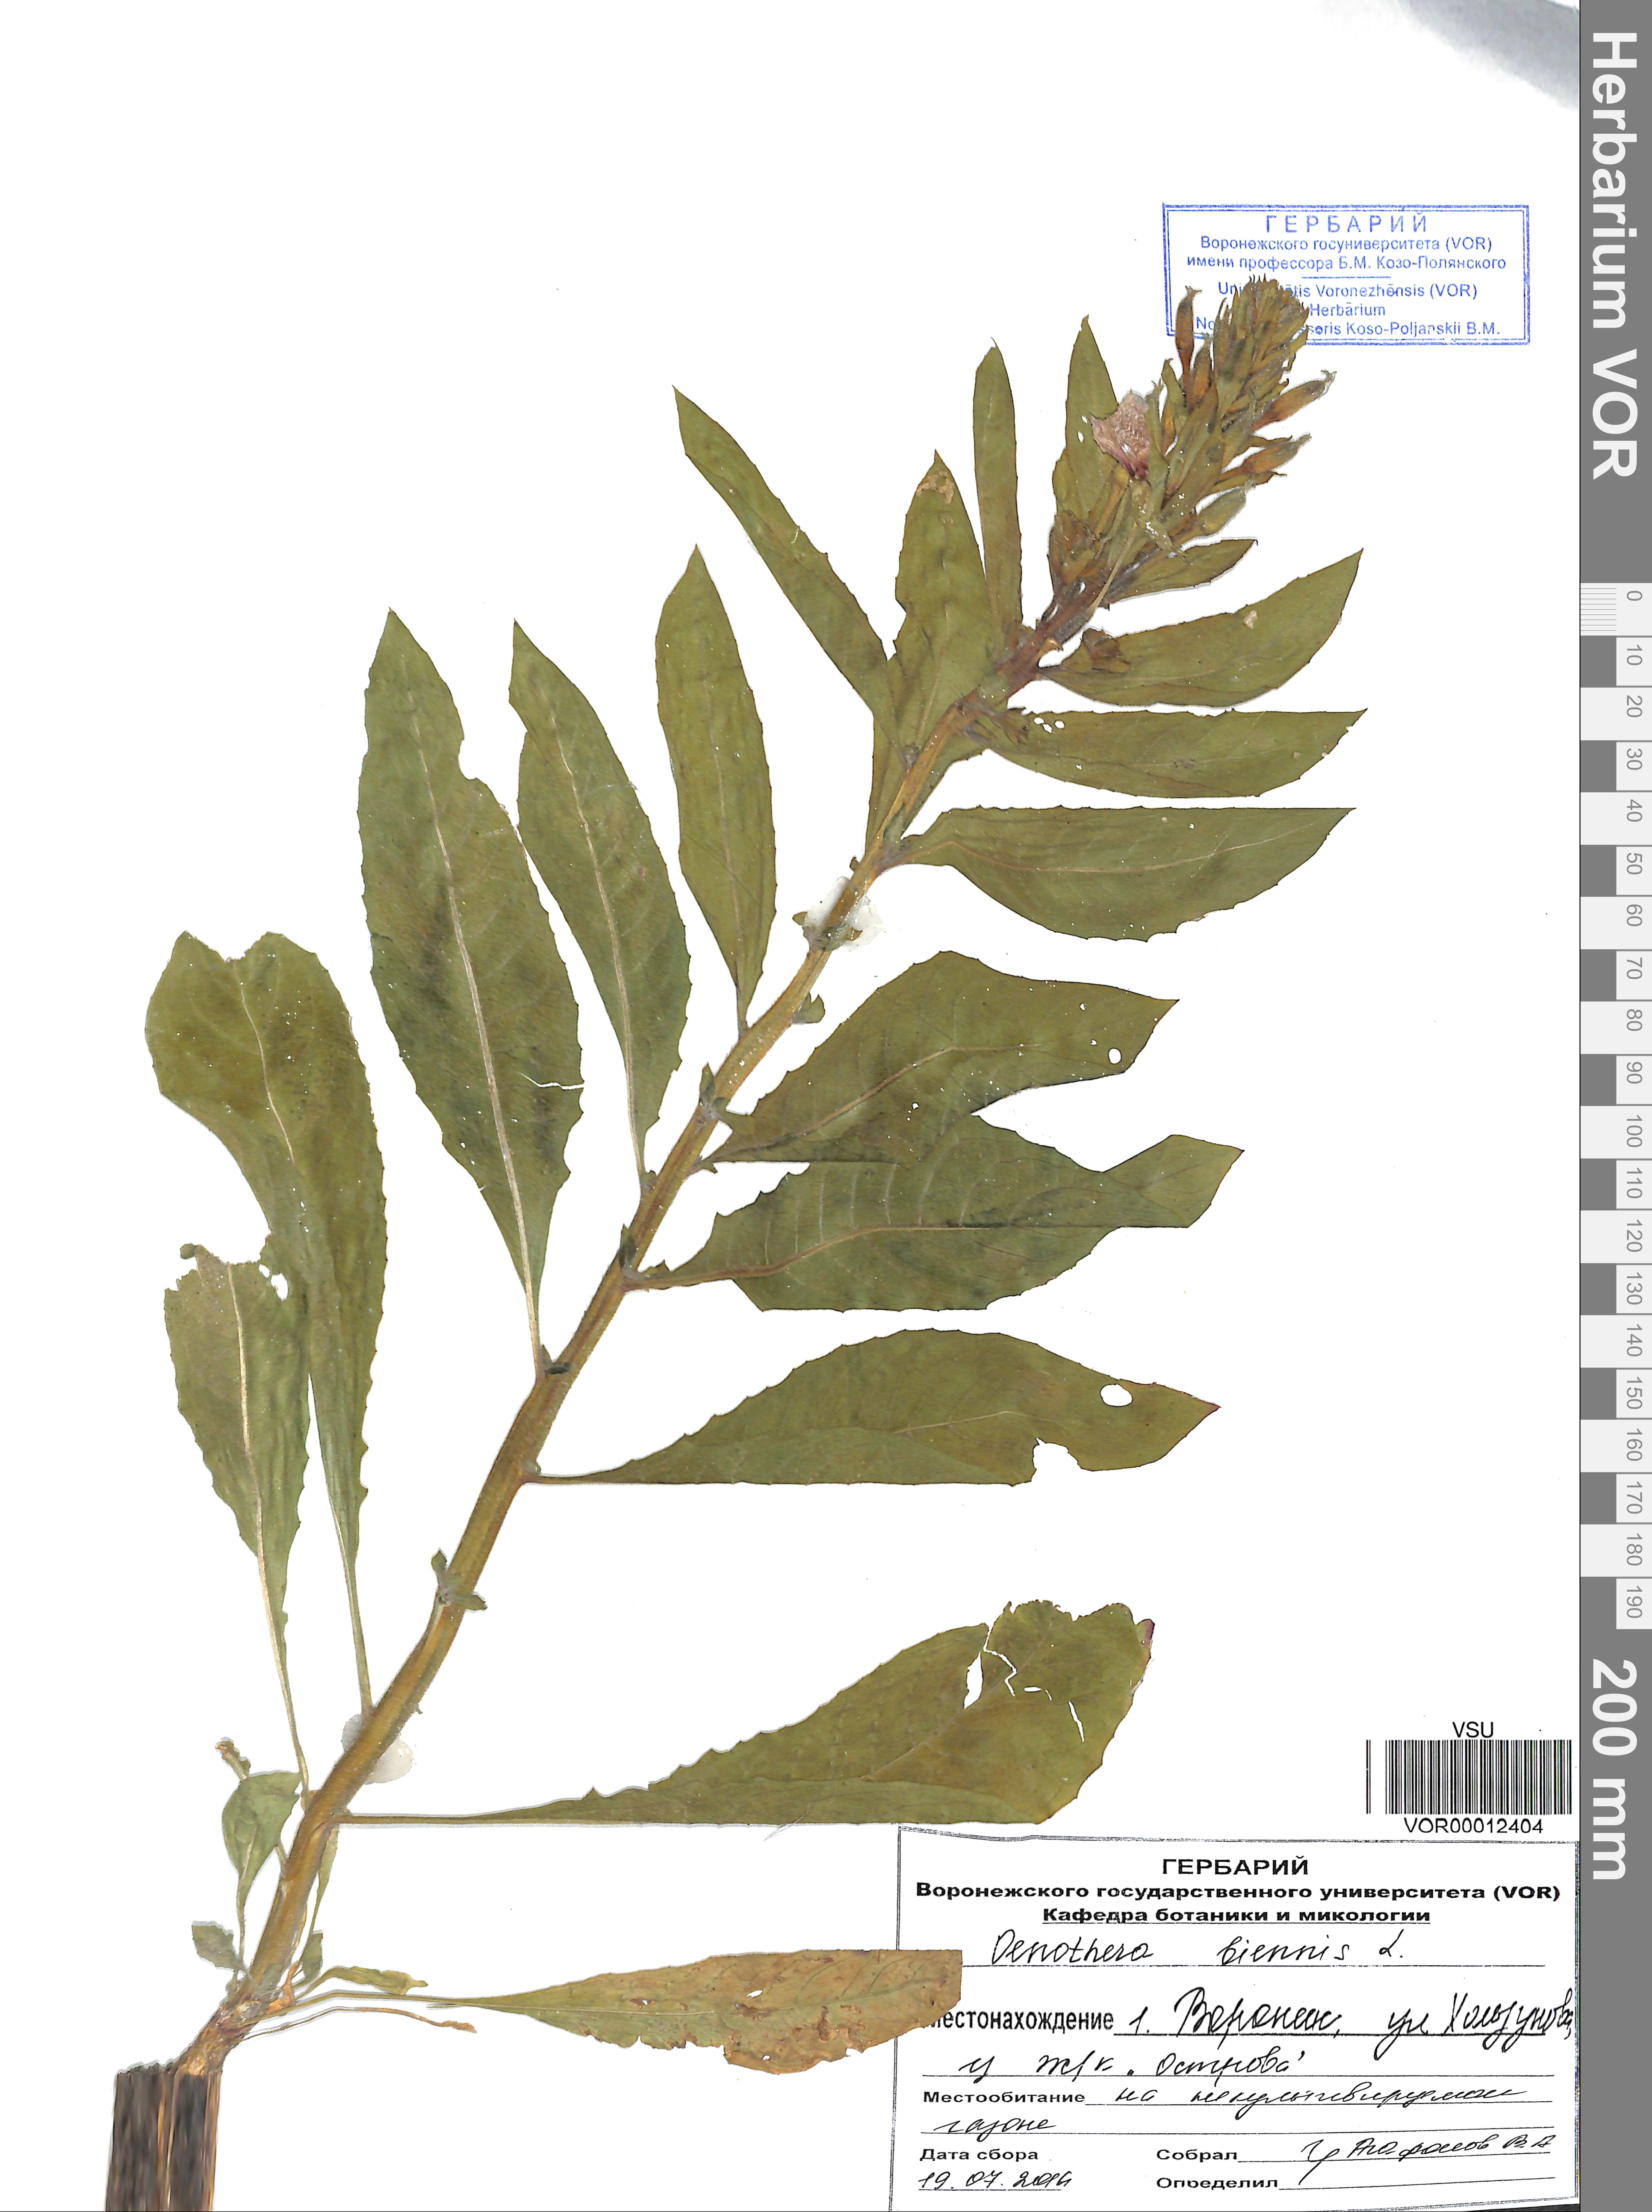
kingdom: Plantae
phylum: Tracheophyta
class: Magnoliopsida
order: Myrtales
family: Onagraceae
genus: Oenothera
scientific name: Oenothera biennis
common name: Common evening-primrose
